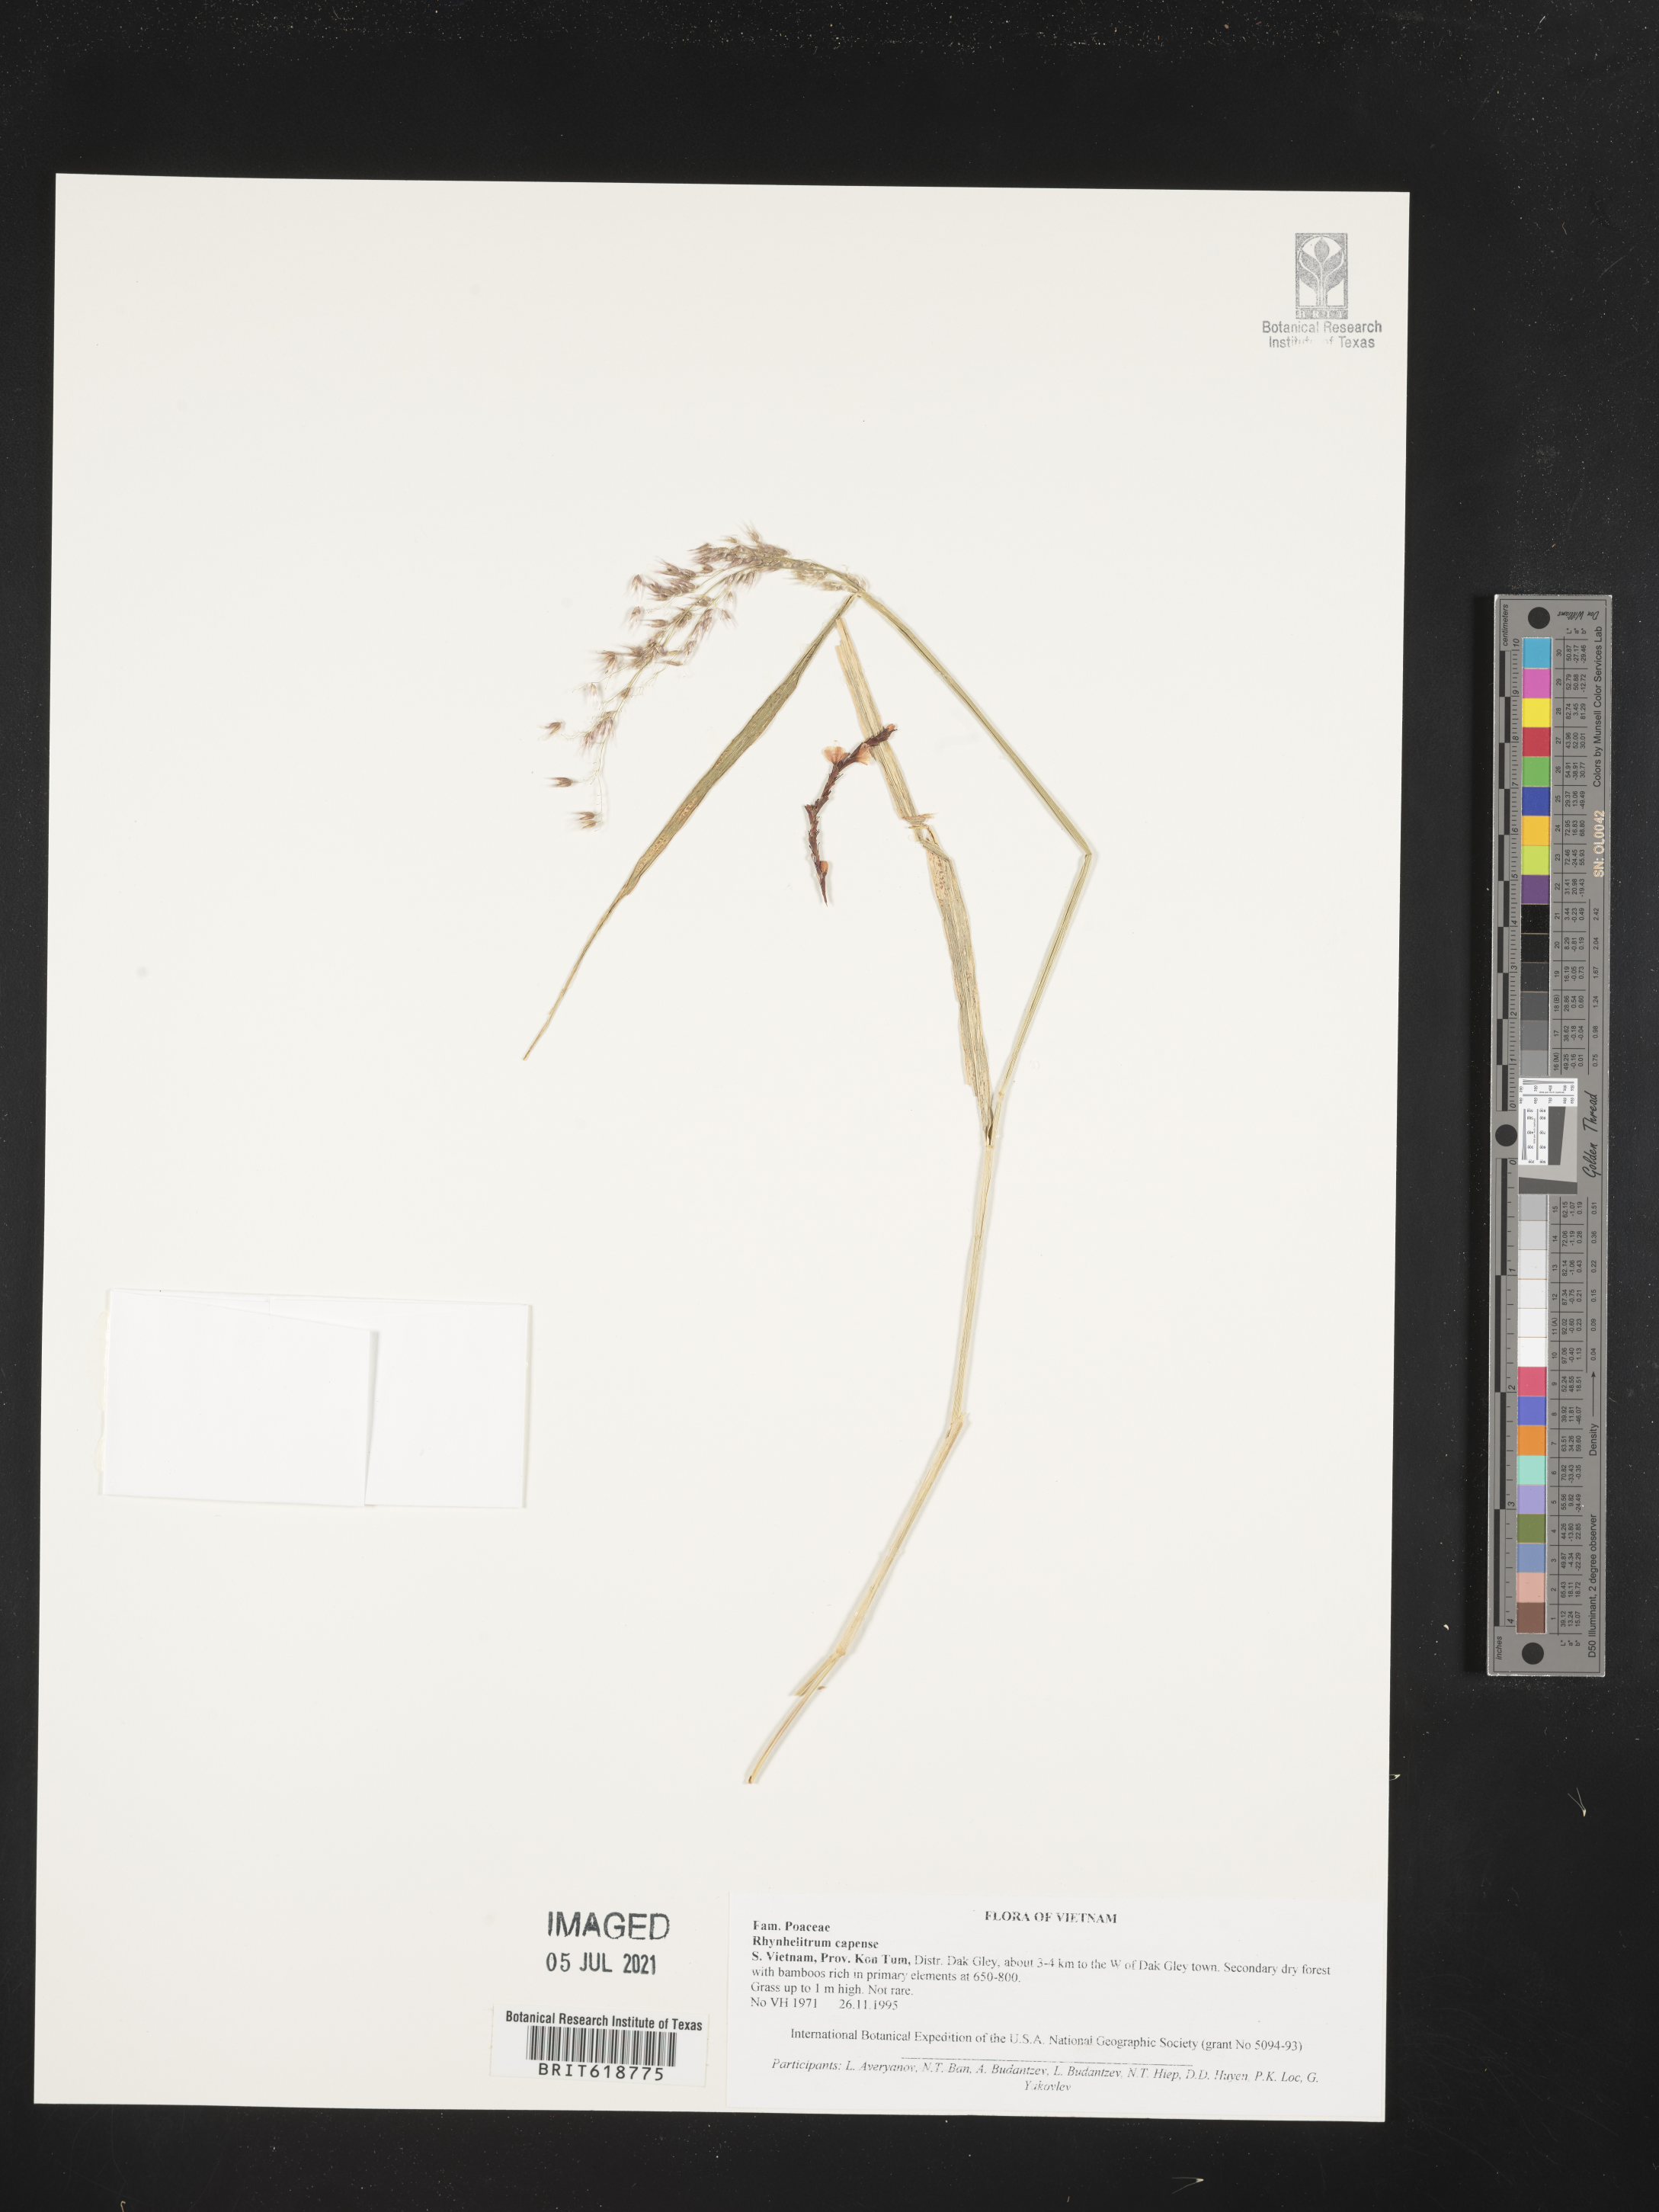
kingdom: Plantae
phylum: Tracheophyta
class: Magnoliopsida
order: Fabales
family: Fabaceae
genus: Rhynchosia
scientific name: Rhynchosia capensis
